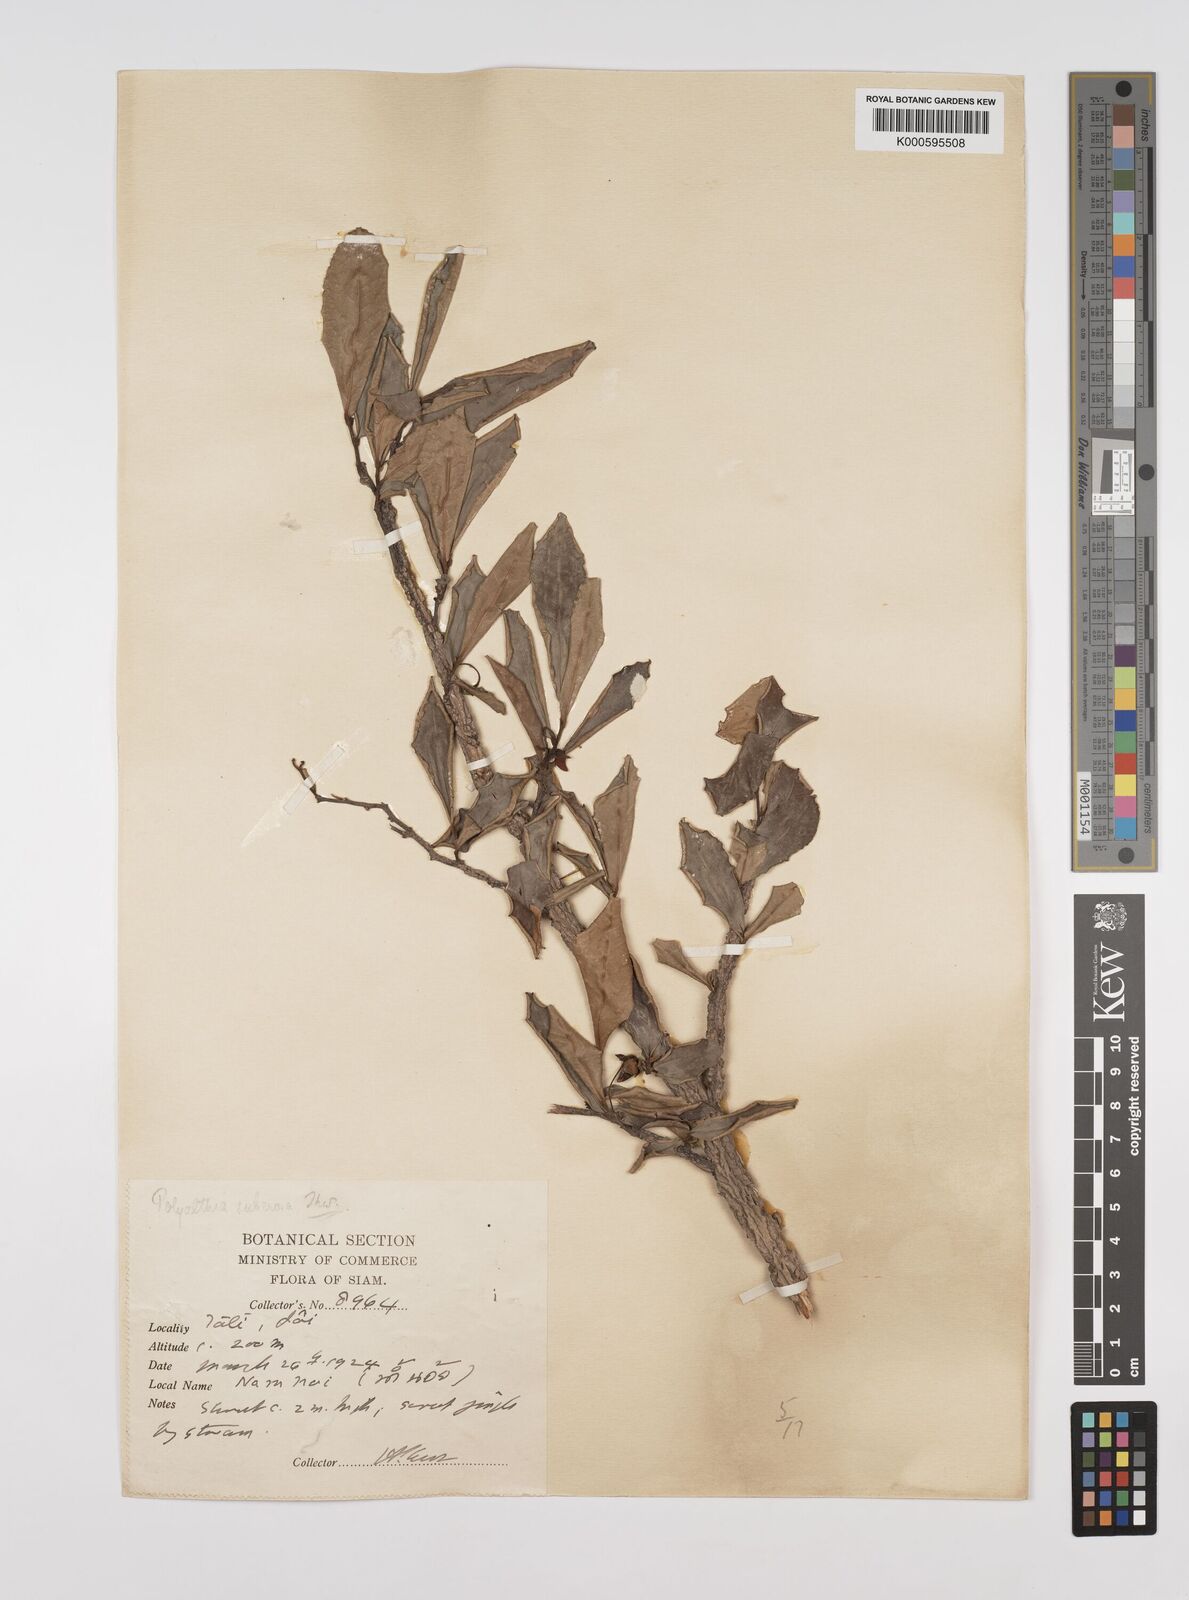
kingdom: Plantae
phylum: Tracheophyta
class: Magnoliopsida
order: Magnoliales
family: Annonaceae
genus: Polyalthia
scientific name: Polyalthia suberosa
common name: Polyalthia plant
